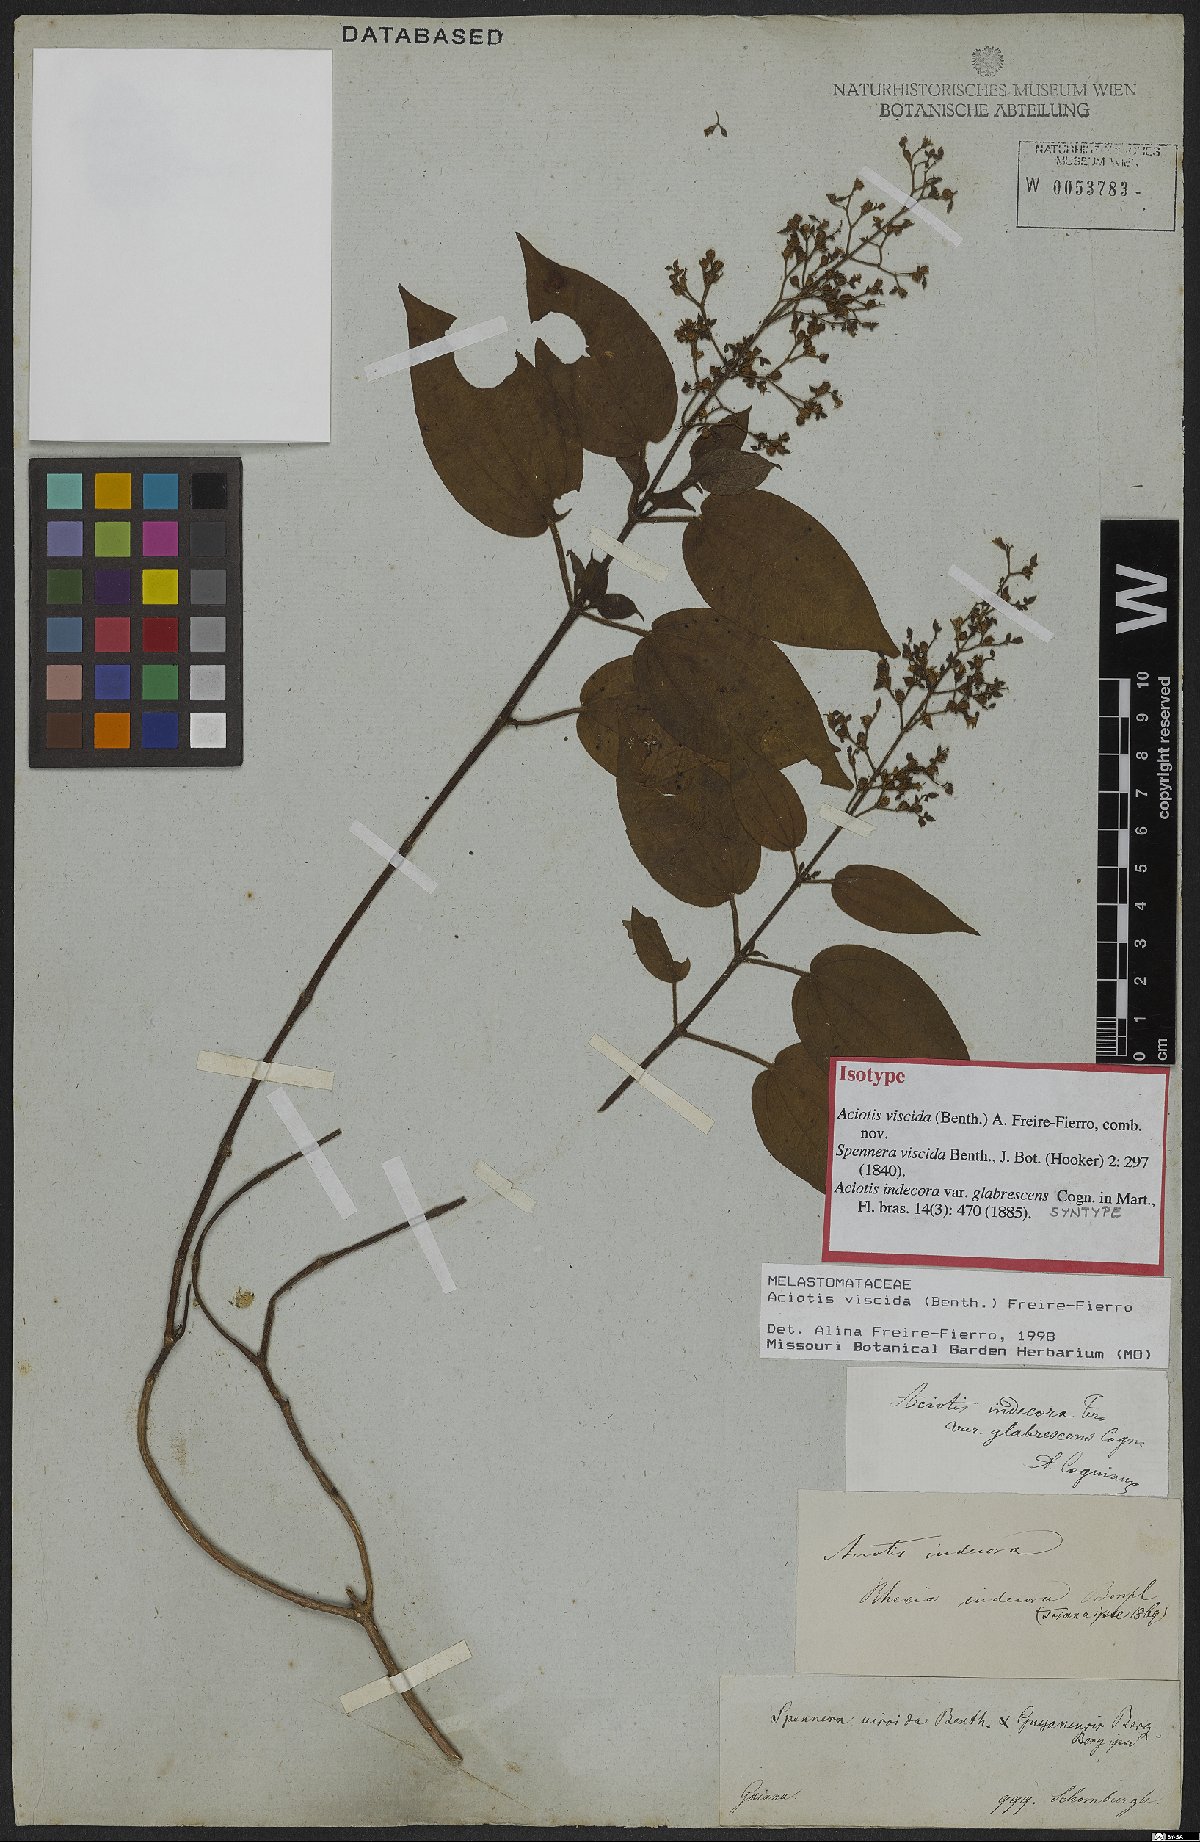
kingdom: Plantae
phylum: Tracheophyta
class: Magnoliopsida
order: Myrtales
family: Melastomataceae
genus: Aciotis
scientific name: Aciotis viscida
